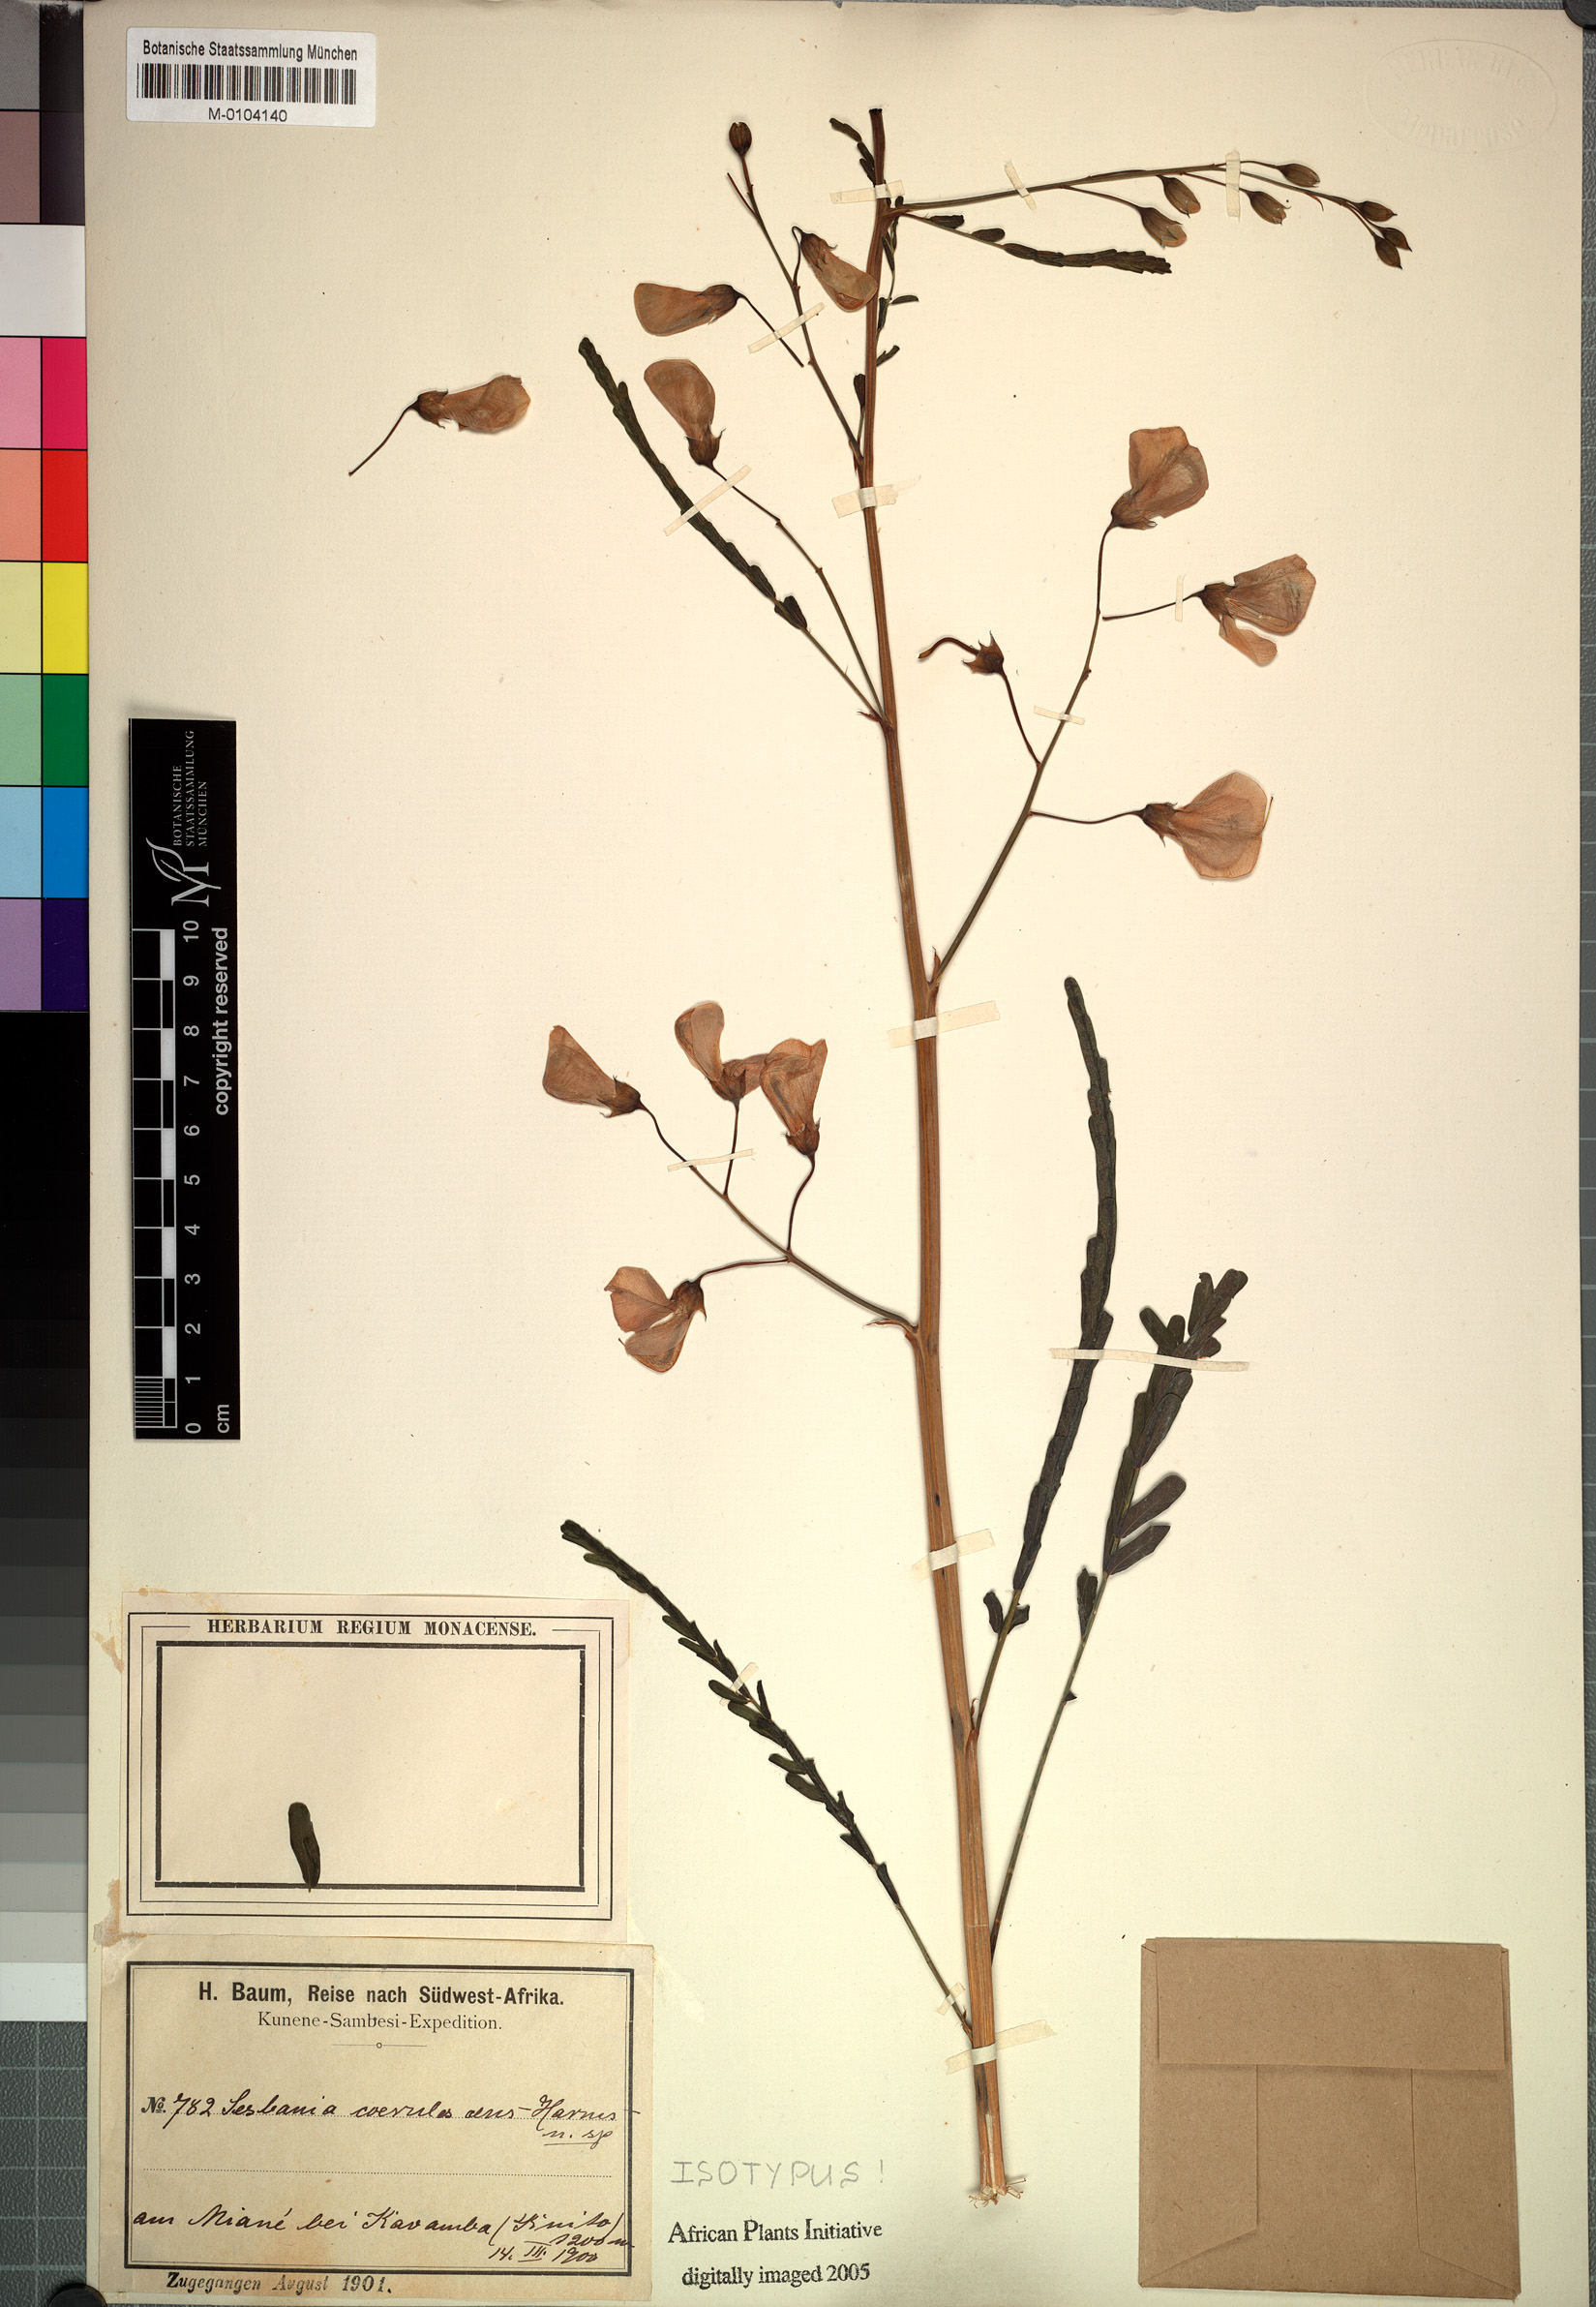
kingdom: Plantae
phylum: Tracheophyta
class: Magnoliopsida
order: Fabales
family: Fabaceae
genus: Sesbania
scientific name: Sesbania coerulescens
